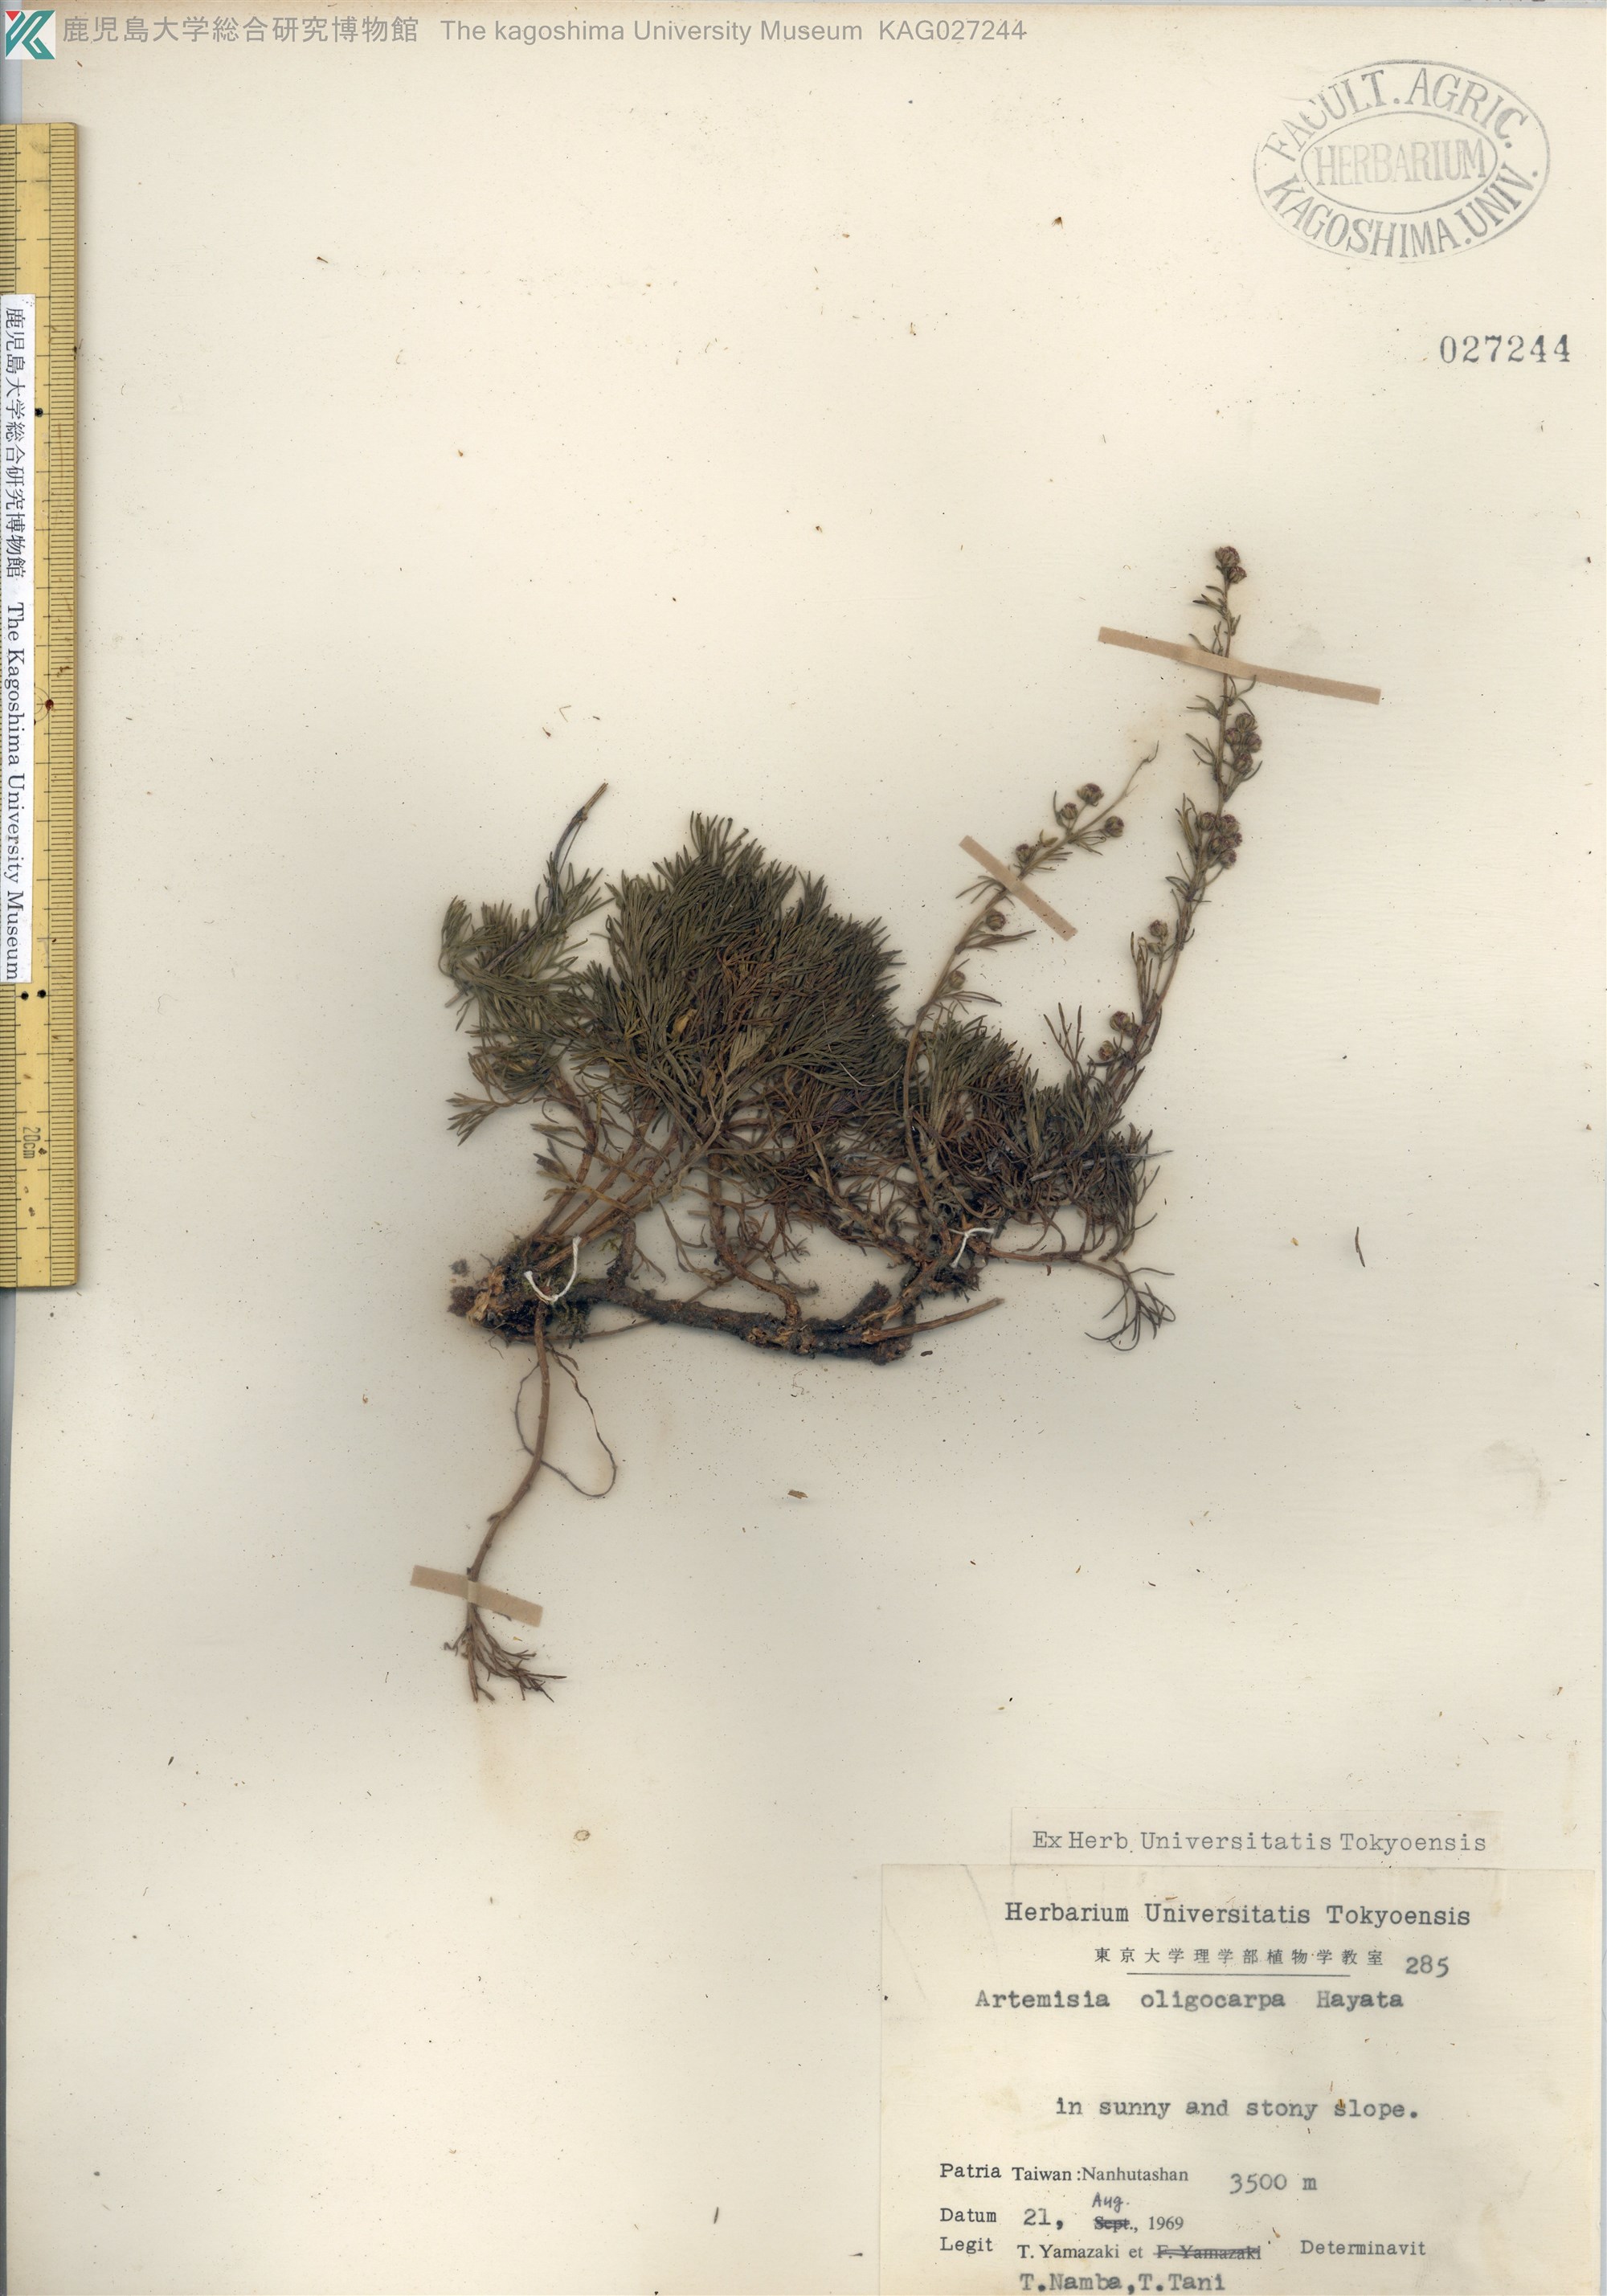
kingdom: Plantae
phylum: Tracheophyta
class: Magnoliopsida
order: Asterales
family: Asteraceae
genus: Artemisia
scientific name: Artemisia oligocarpa
